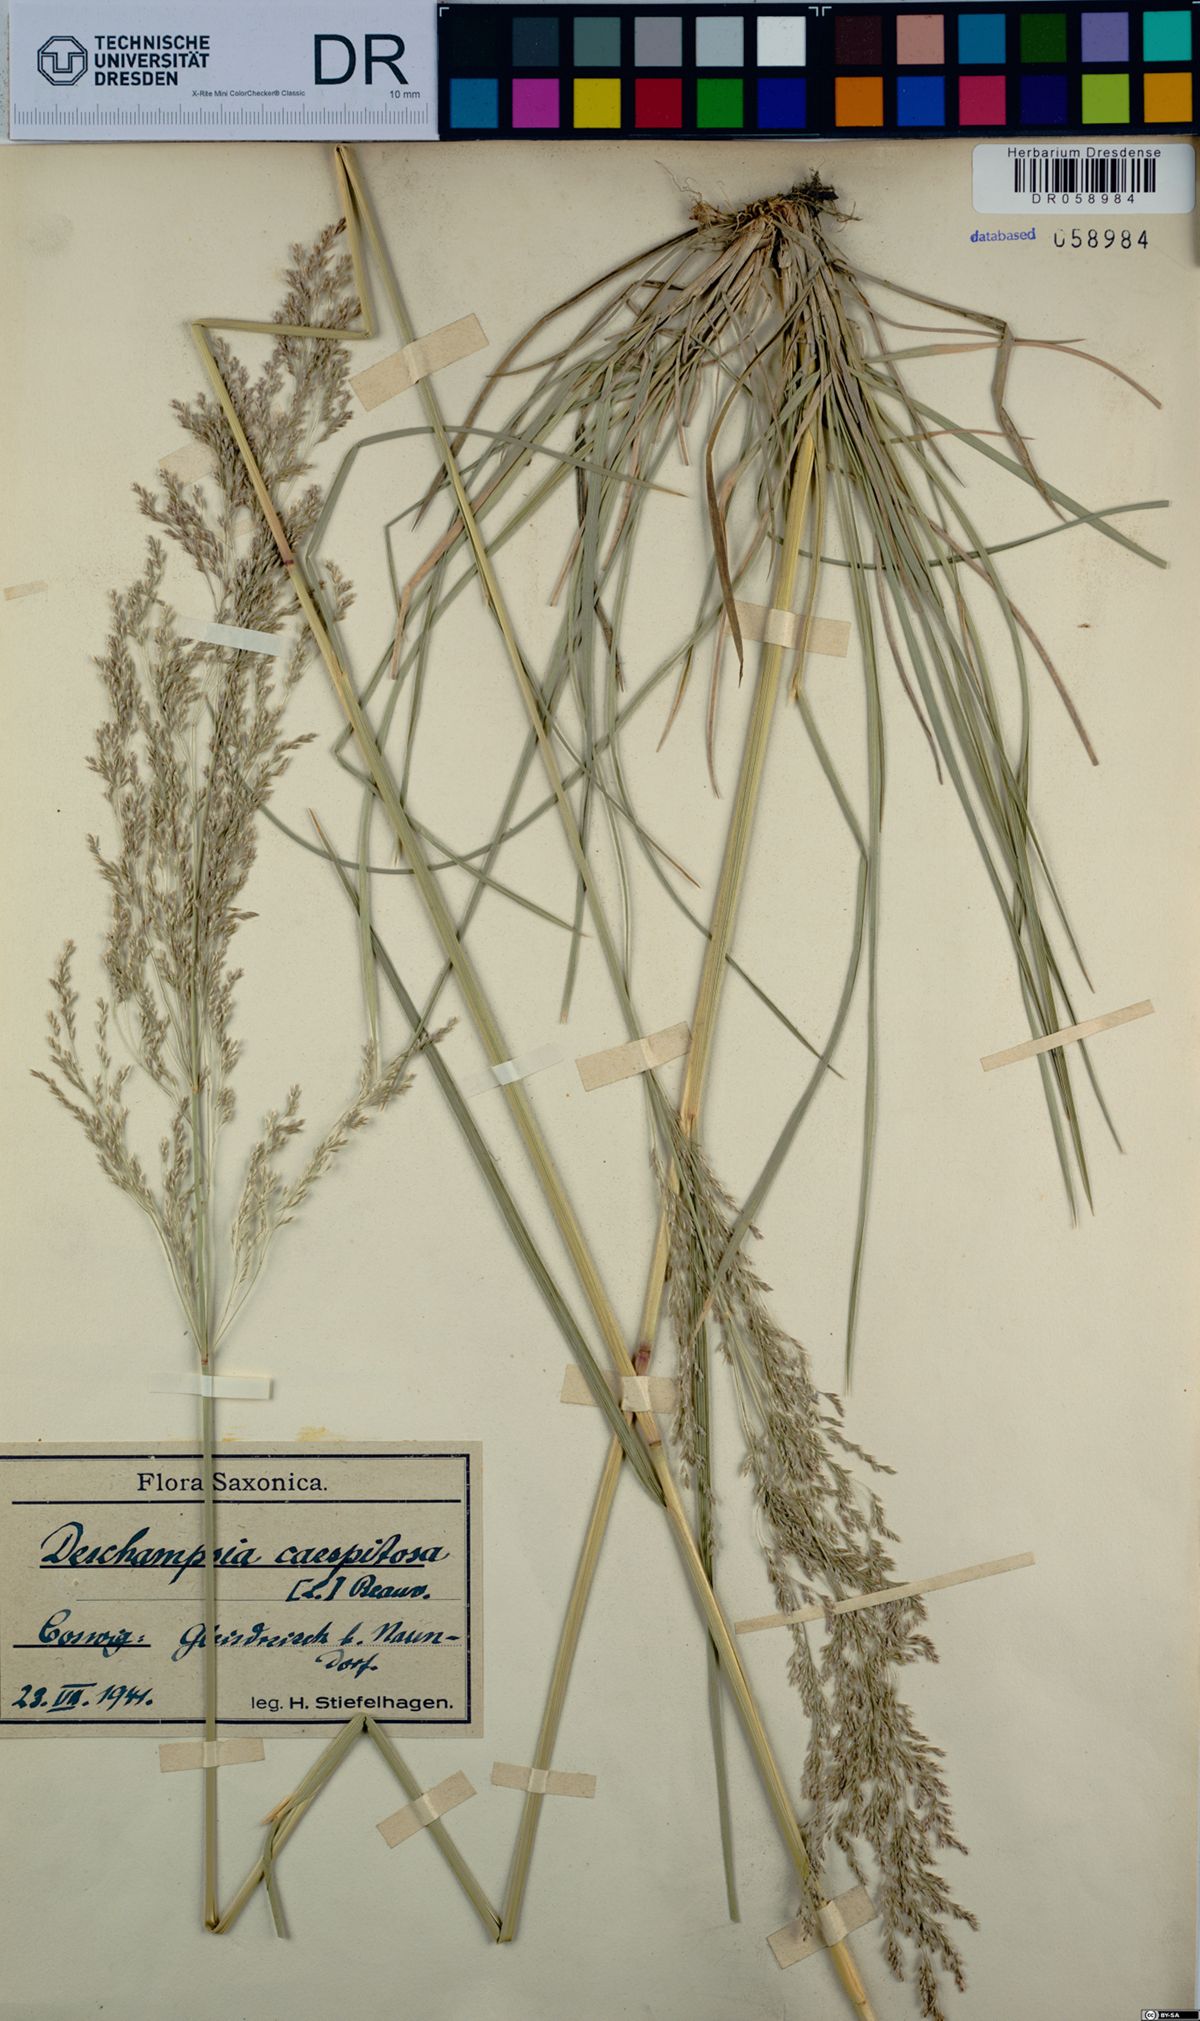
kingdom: Plantae
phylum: Tracheophyta
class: Liliopsida
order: Poales
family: Poaceae
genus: Deschampsia
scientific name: Deschampsia cespitosa
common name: Tufted hair-grass
